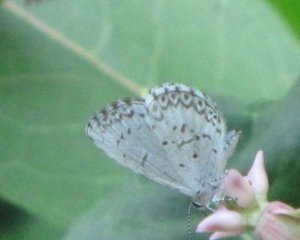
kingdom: Animalia
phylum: Arthropoda
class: Insecta
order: Lepidoptera
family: Lycaenidae
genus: Celastrina
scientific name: Celastrina
